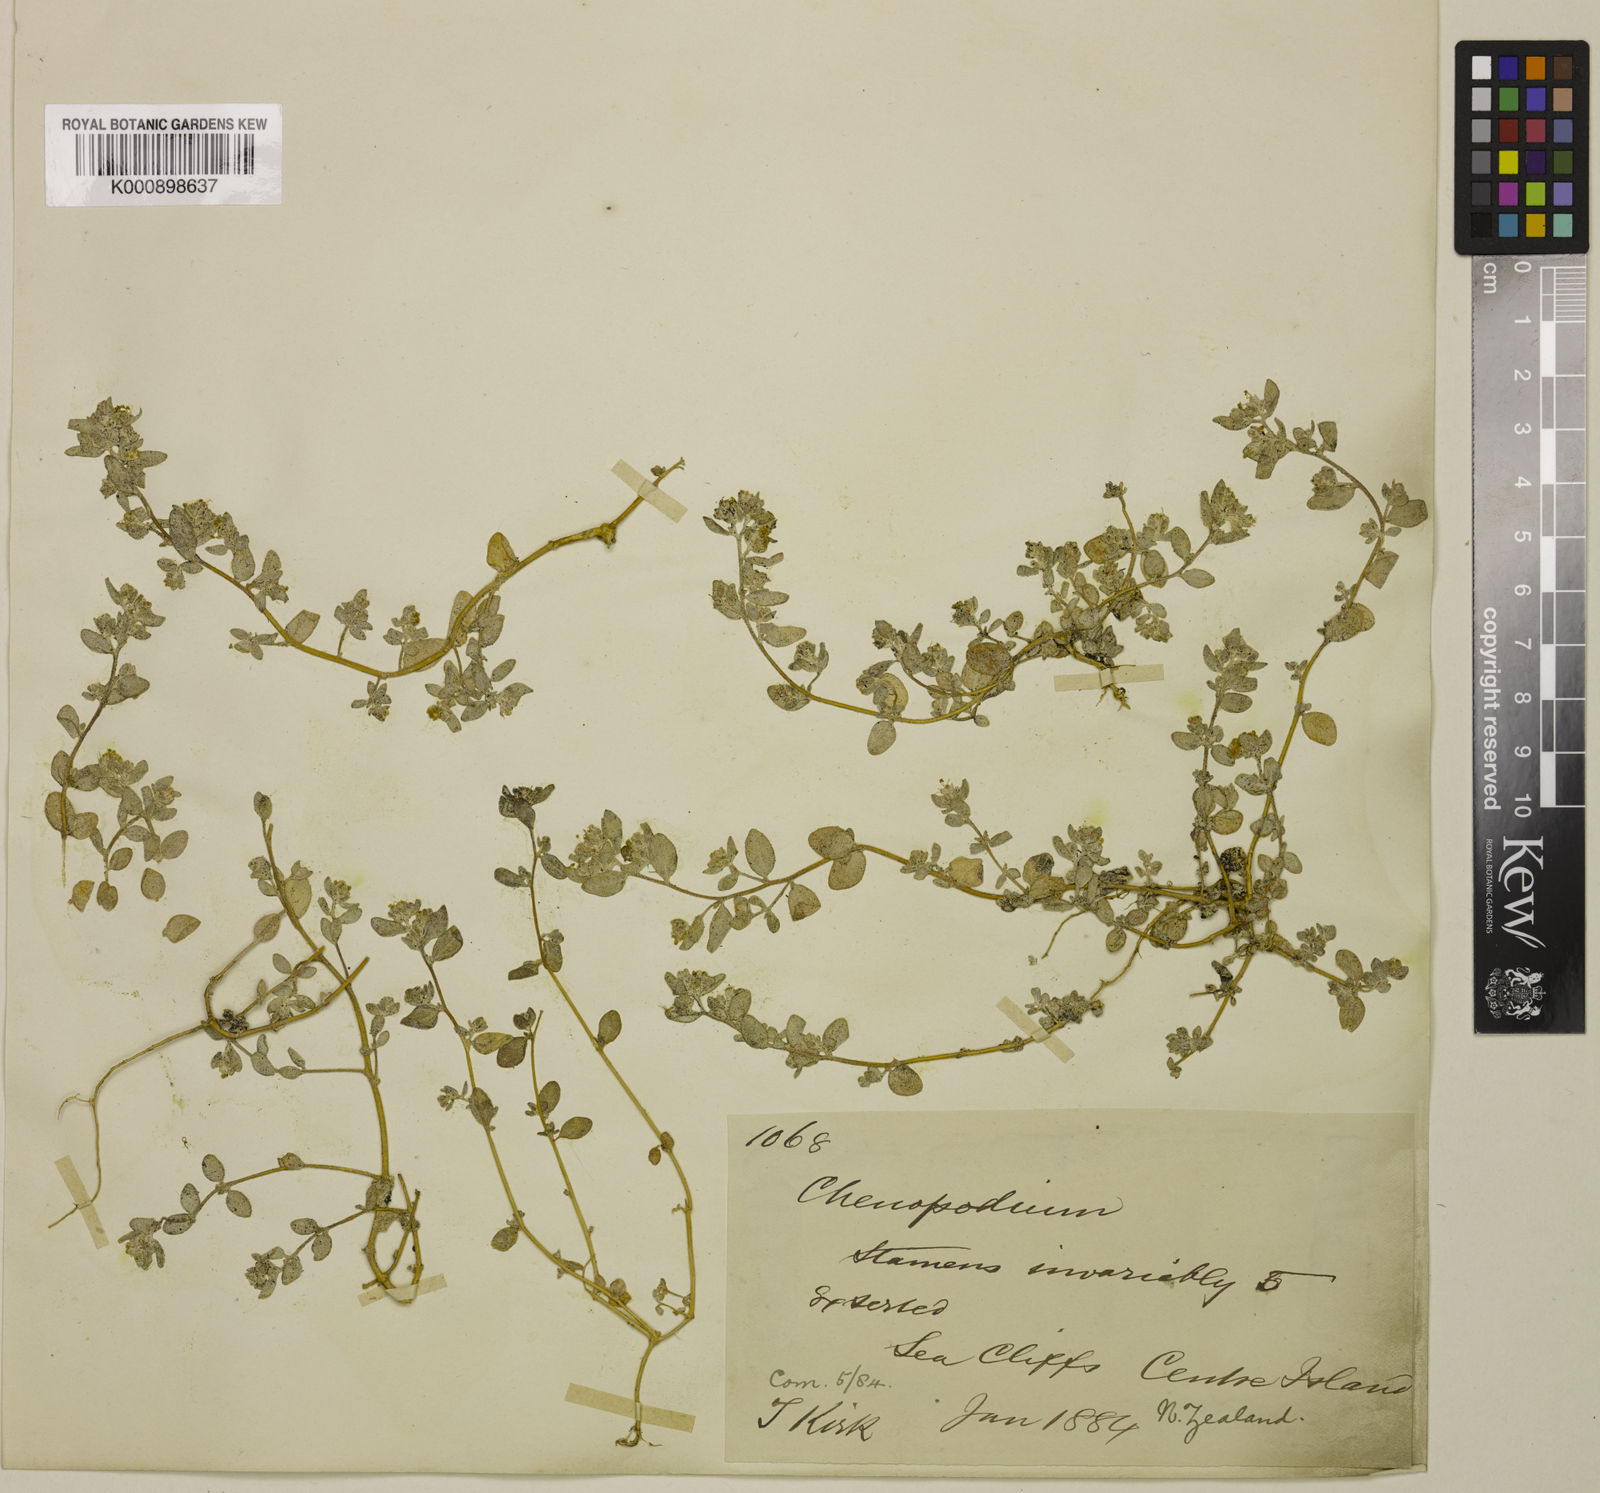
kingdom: Plantae
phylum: Tracheophyta
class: Magnoliopsida
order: Caryophyllales
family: Amaranthaceae
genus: Atriplex
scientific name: Atriplex buchananii
